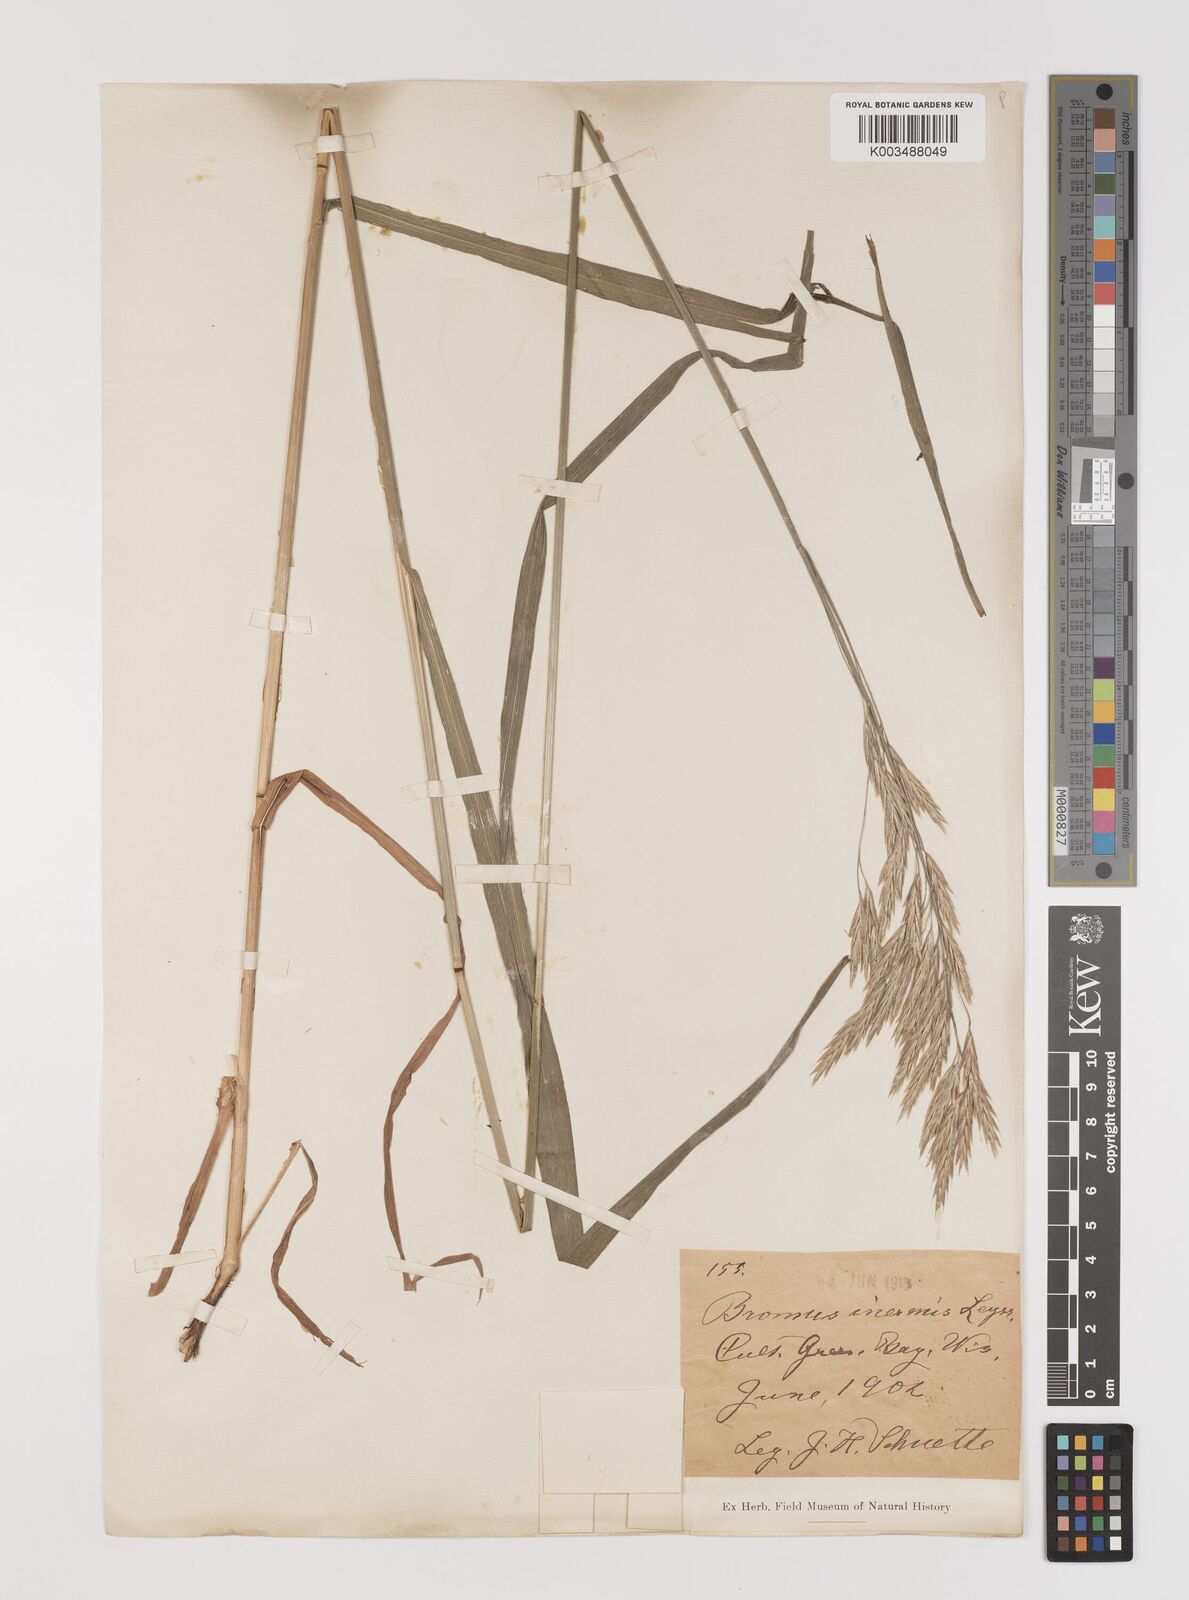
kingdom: Plantae
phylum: Tracheophyta
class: Liliopsida
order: Poales
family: Poaceae
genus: Bromus
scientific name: Bromus inermis
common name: Smooth brome
